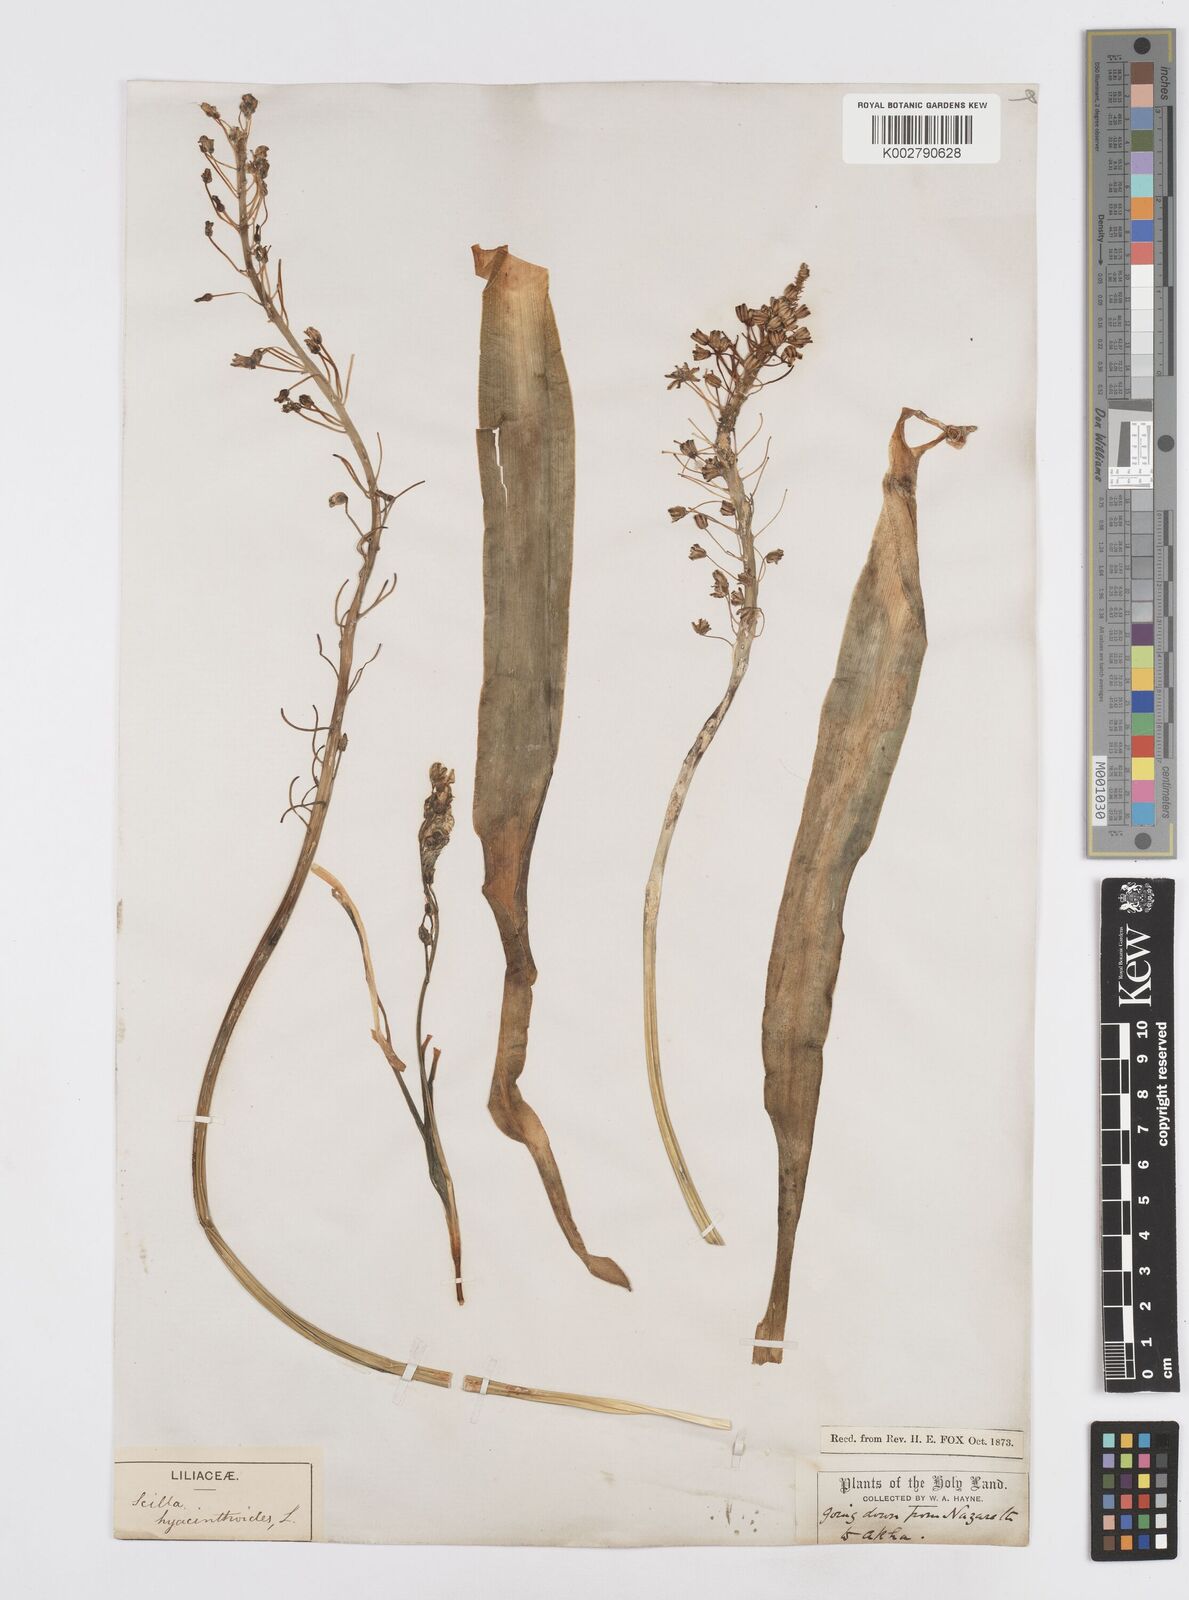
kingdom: Plantae
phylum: Tracheophyta
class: Liliopsida
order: Asparagales
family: Asparagaceae
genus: Scilla
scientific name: Scilla hyacinthoides
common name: Scilla
